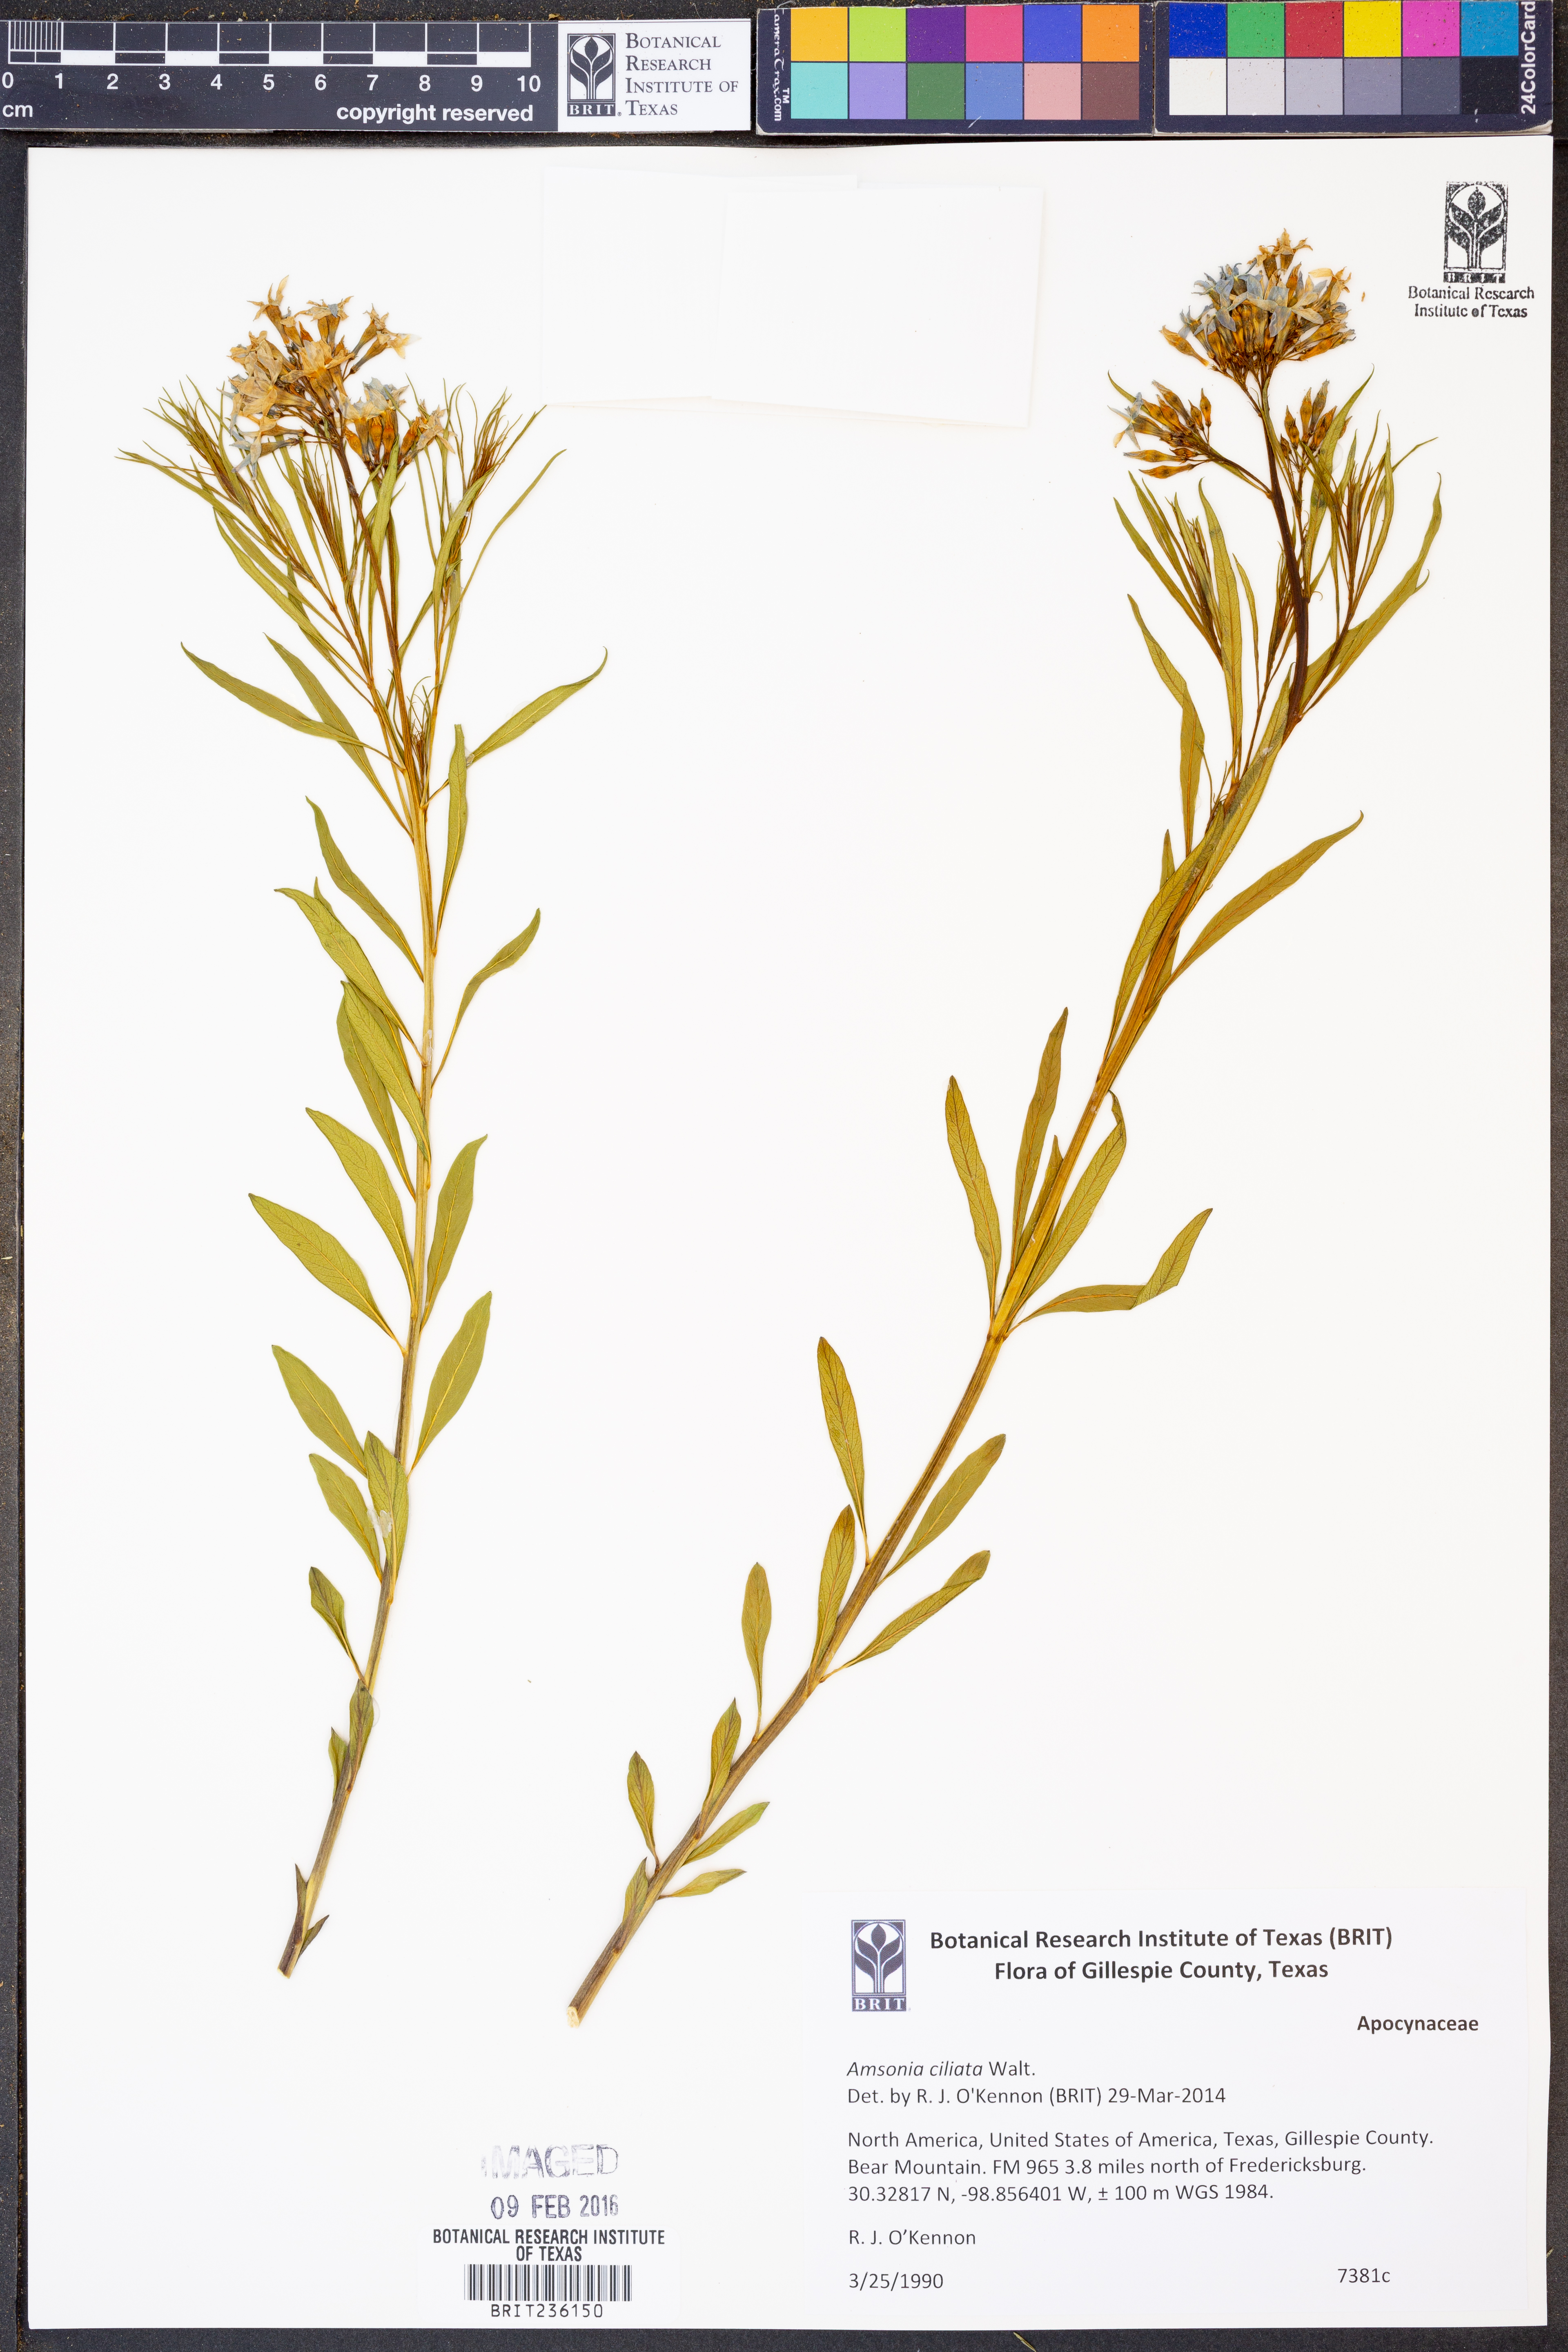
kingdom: Plantae
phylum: Tracheophyta
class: Magnoliopsida
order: Gentianales
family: Apocynaceae
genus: Amsonia
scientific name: Amsonia ciliata
